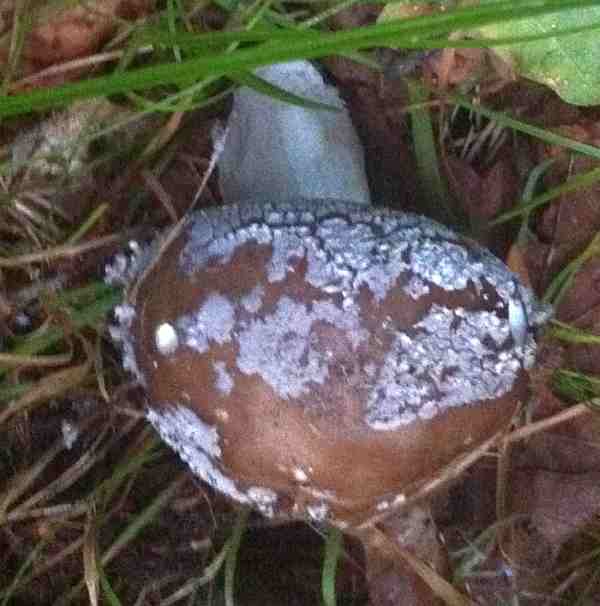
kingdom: Fungi
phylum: Basidiomycota
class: Agaricomycetes
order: Agaricales
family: Amanitaceae
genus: Amanita
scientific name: Amanita pantherina
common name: panter-fluesvamp
